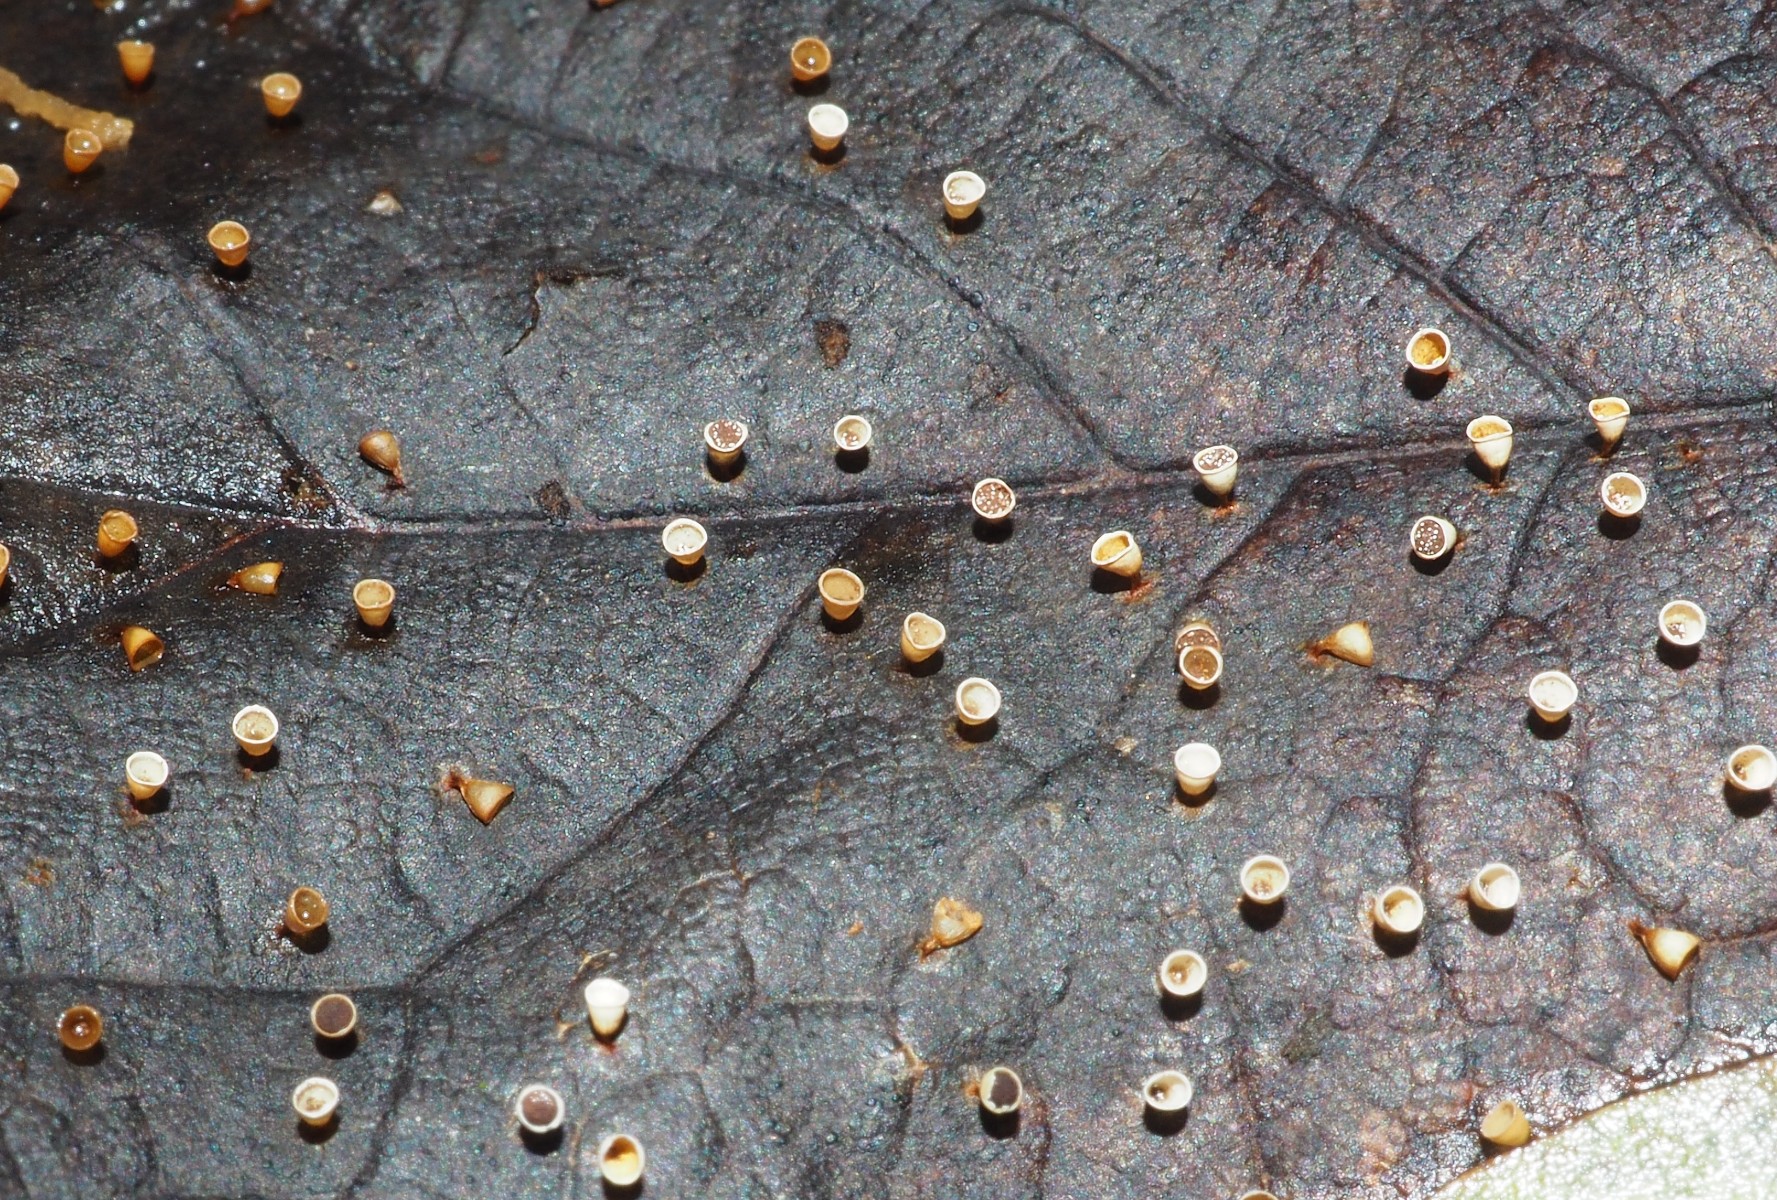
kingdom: Protozoa
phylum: Mycetozoa
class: Myxomycetes
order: Physarales
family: Physaraceae
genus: Craterium
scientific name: Craterium minutum
